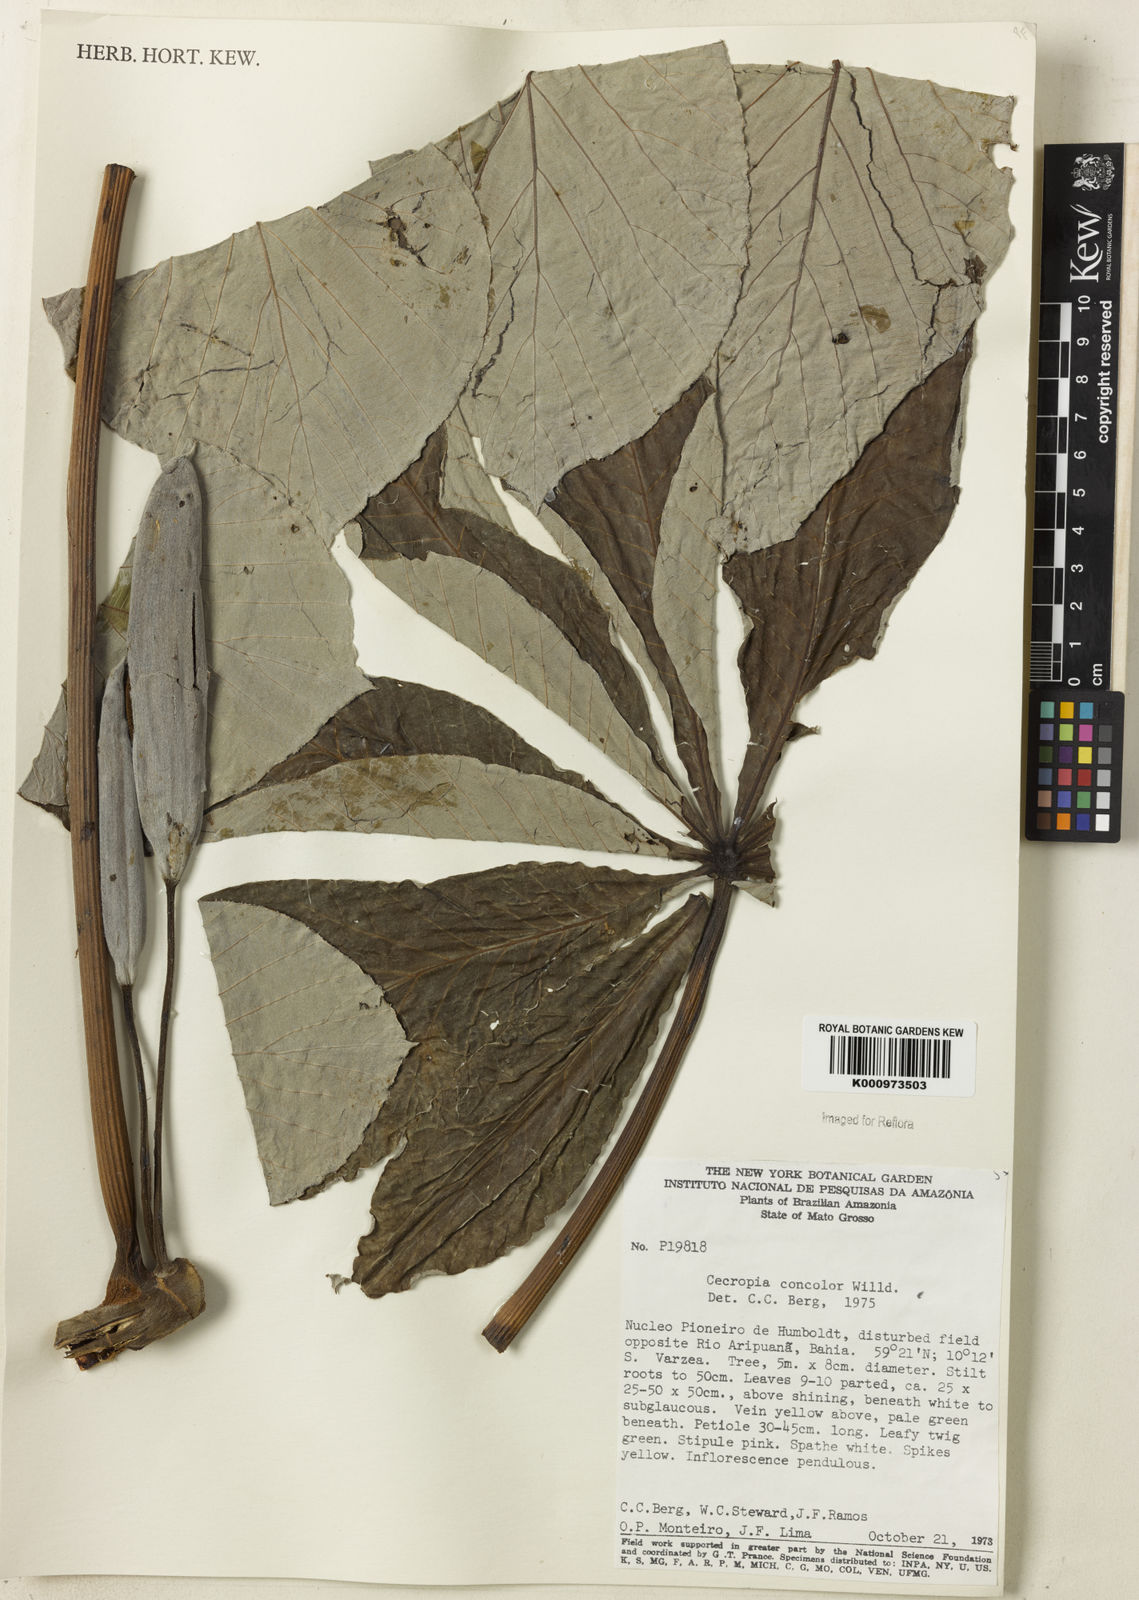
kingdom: Plantae
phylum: Tracheophyta
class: Magnoliopsida
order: Rosales
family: Urticaceae
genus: Cecropia
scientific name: Cecropia concolor
